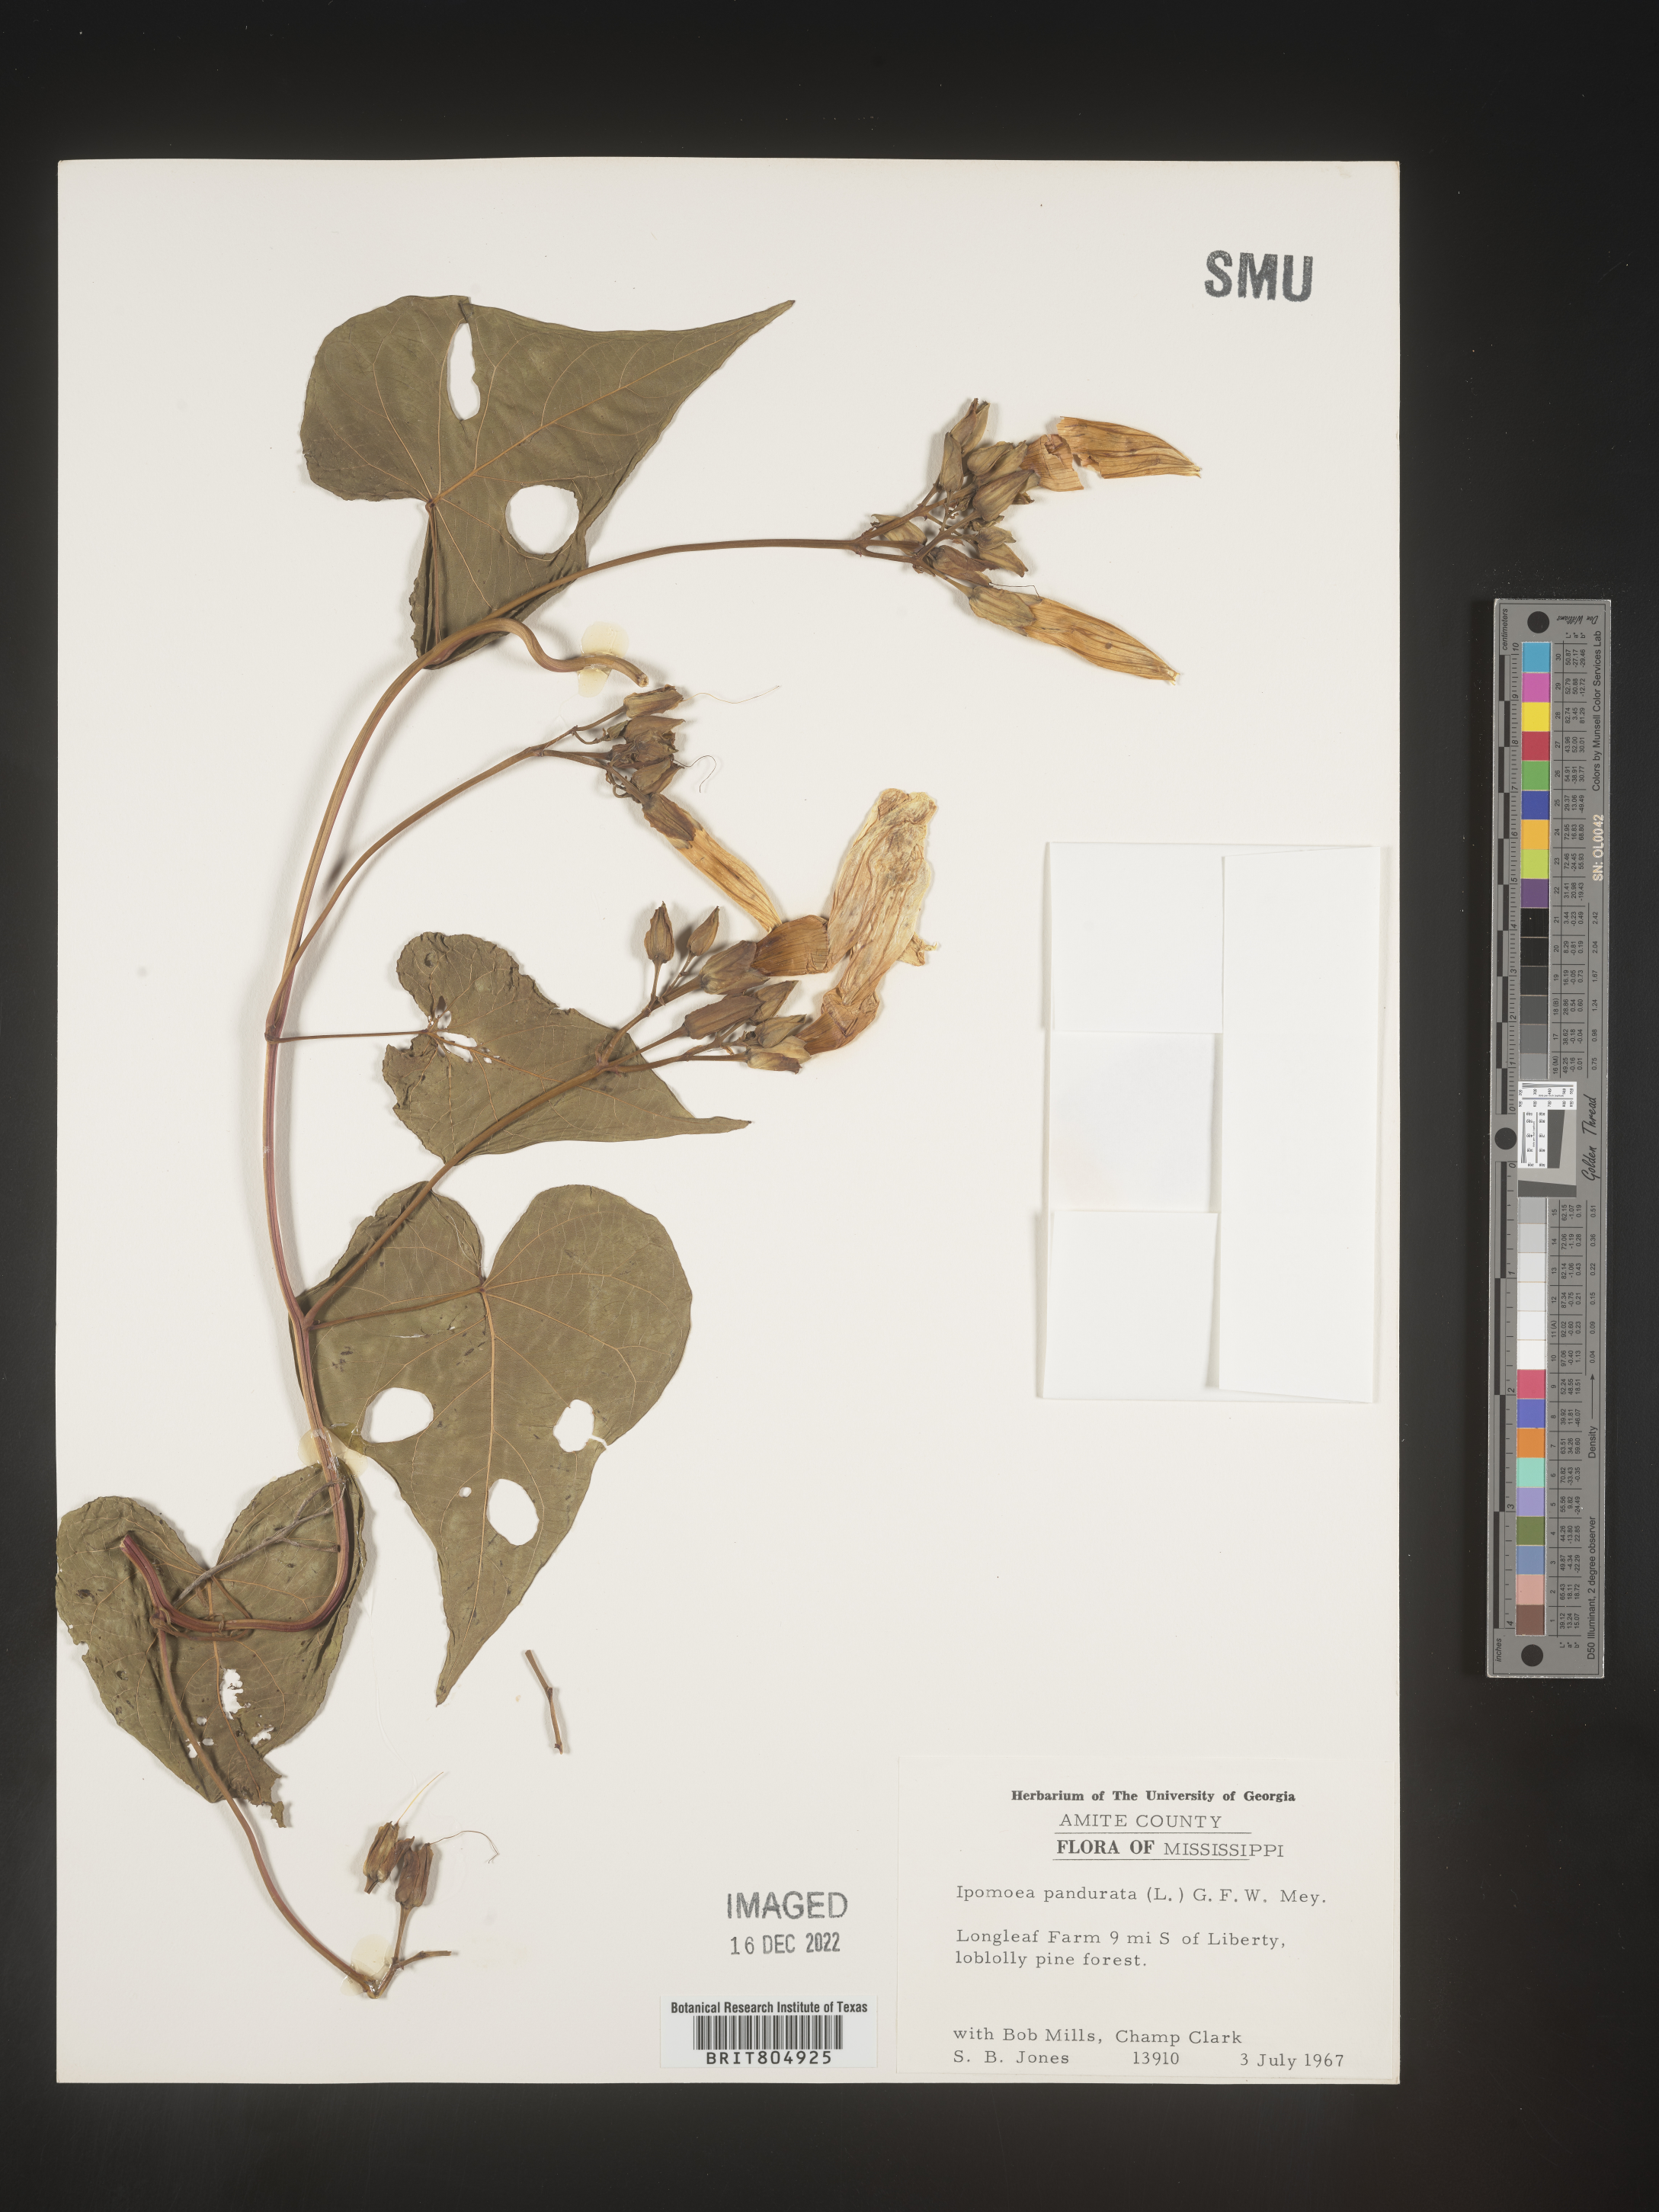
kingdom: Plantae
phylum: Tracheophyta
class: Magnoliopsida
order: Solanales
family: Convolvulaceae
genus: Ipomoea
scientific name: Ipomoea pandurata
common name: Man-of-the-earth
